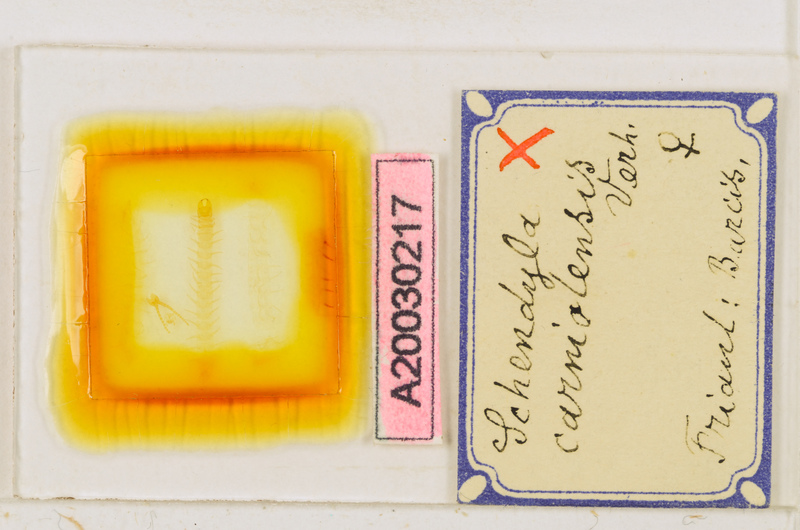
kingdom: Animalia
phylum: Arthropoda
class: Chilopoda
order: Geophilomorpha
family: Schendylidae
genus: Schendyla
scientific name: Schendyla carniolensis
